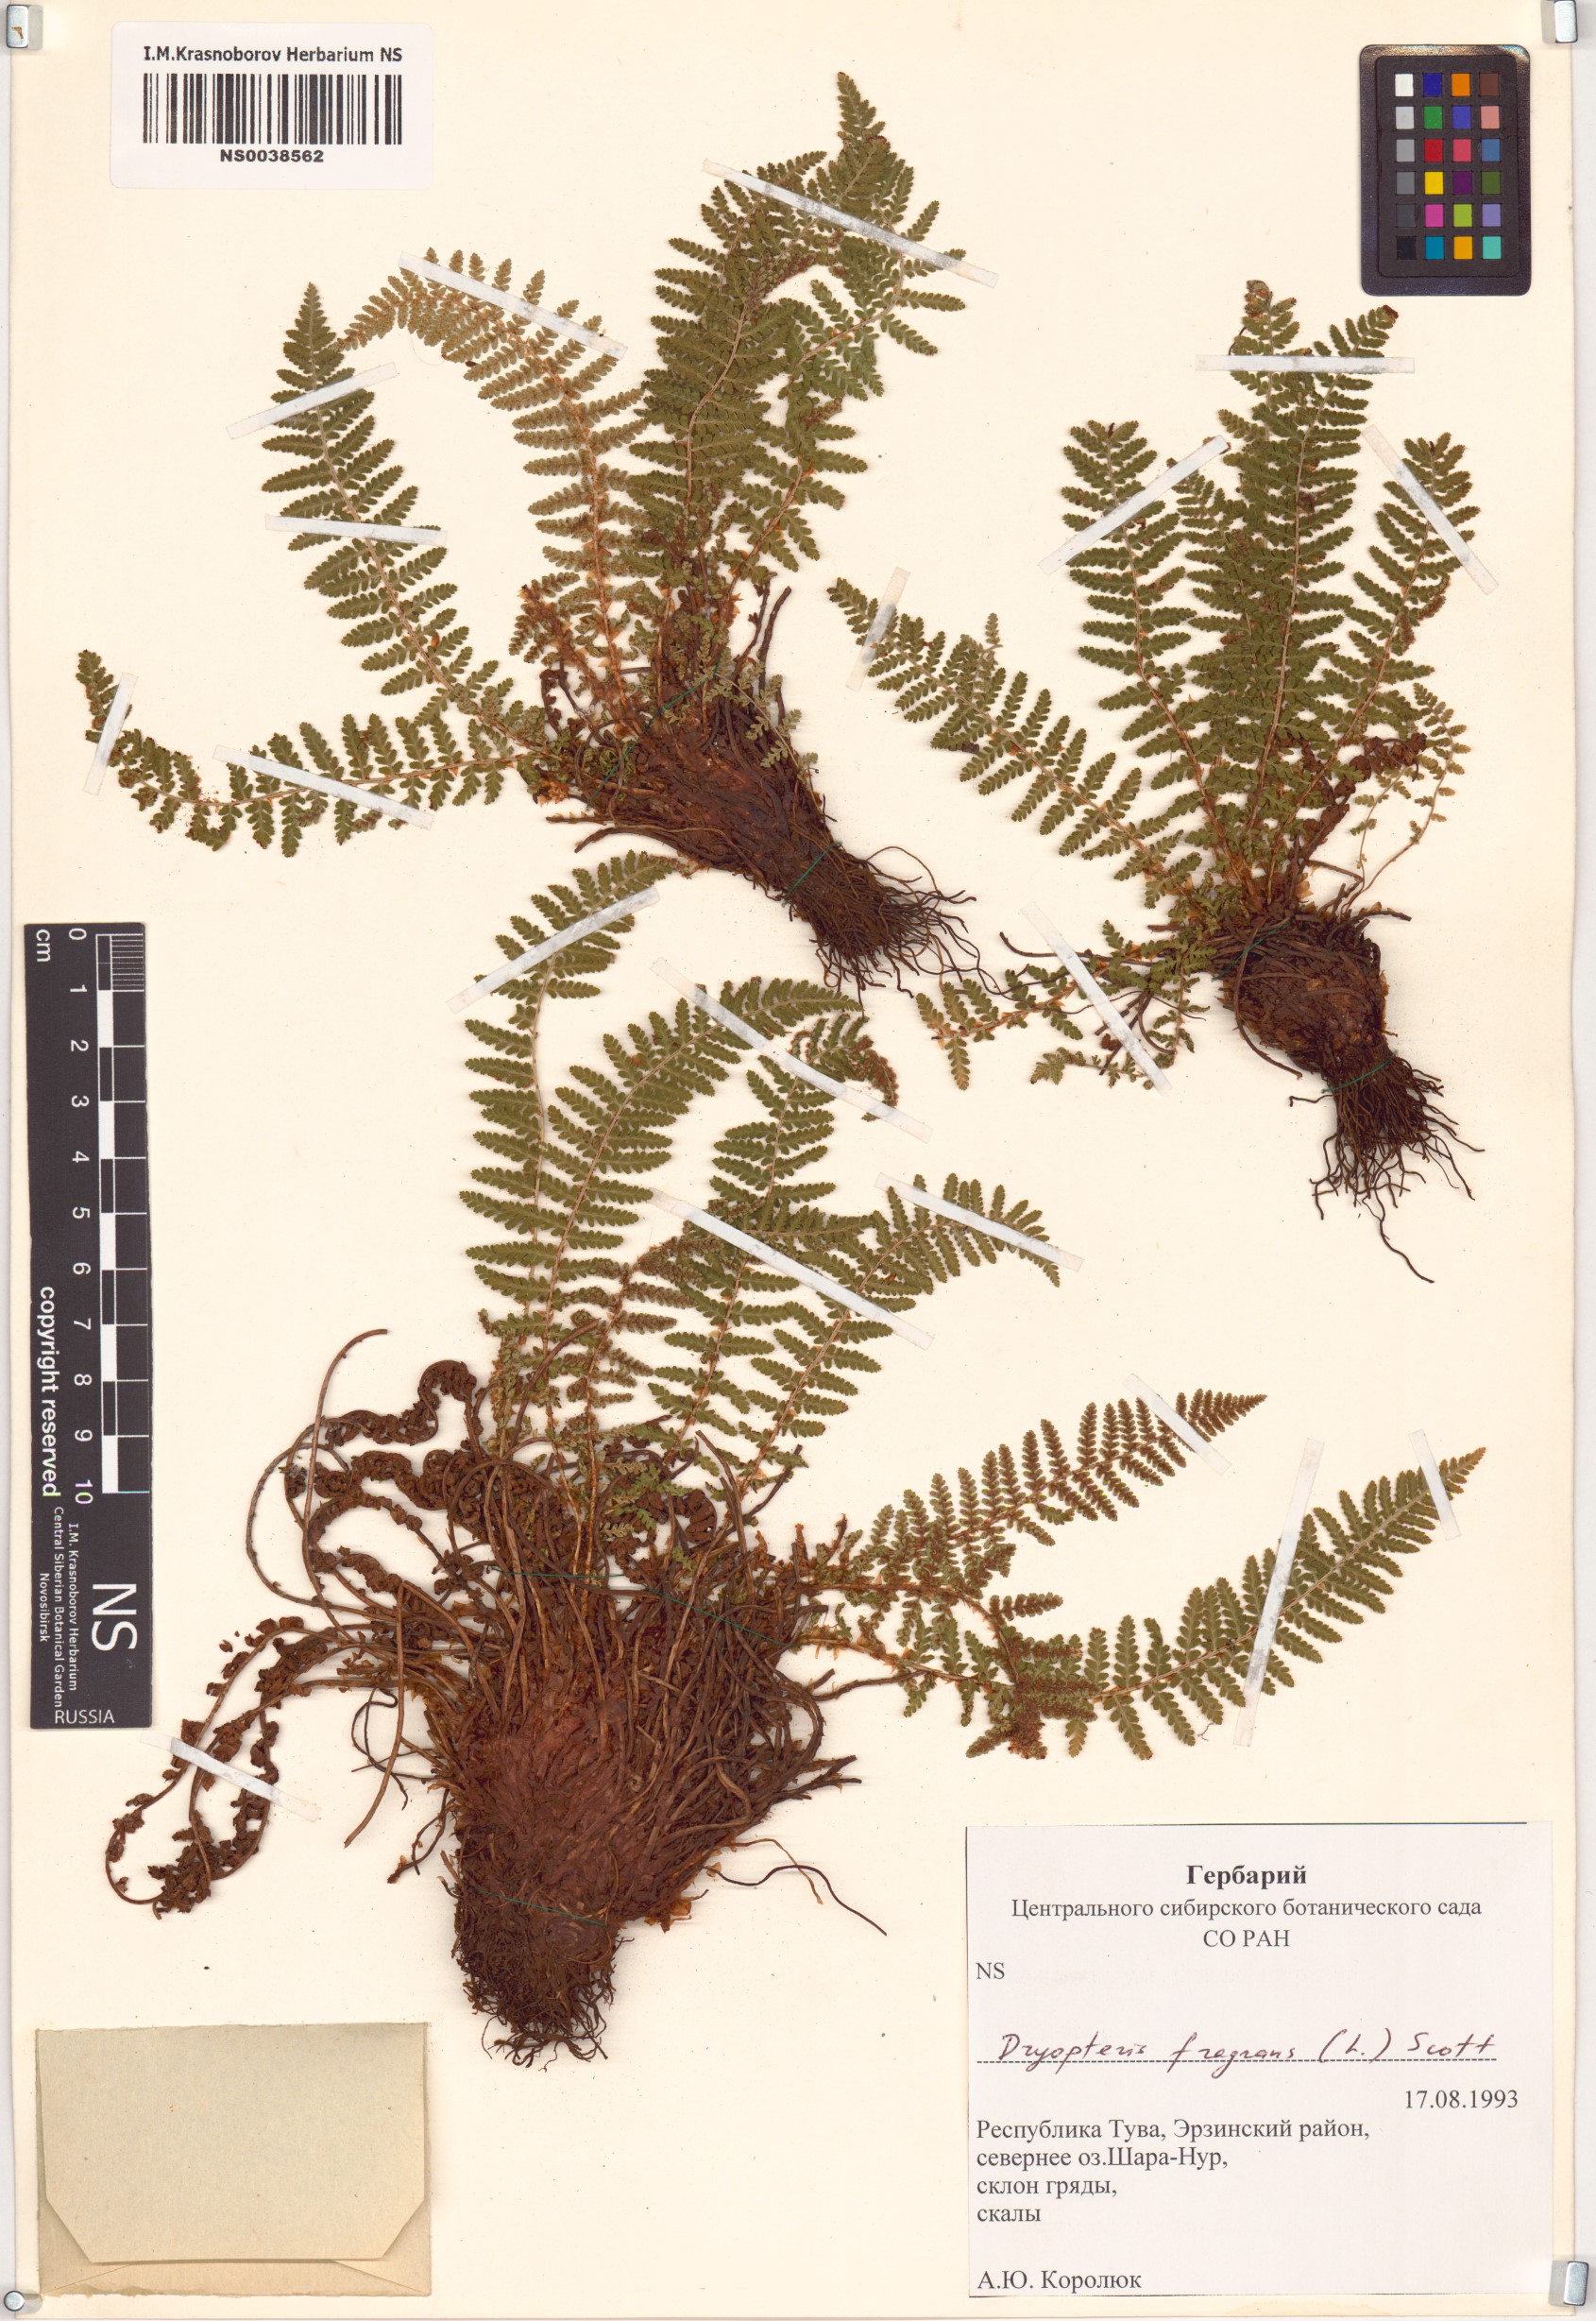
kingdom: Plantae
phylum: Tracheophyta
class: Polypodiopsida
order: Polypodiales
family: Dryopteridaceae
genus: Dryopteris
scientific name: Dryopteris fragrans
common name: Fragrant wood fern
